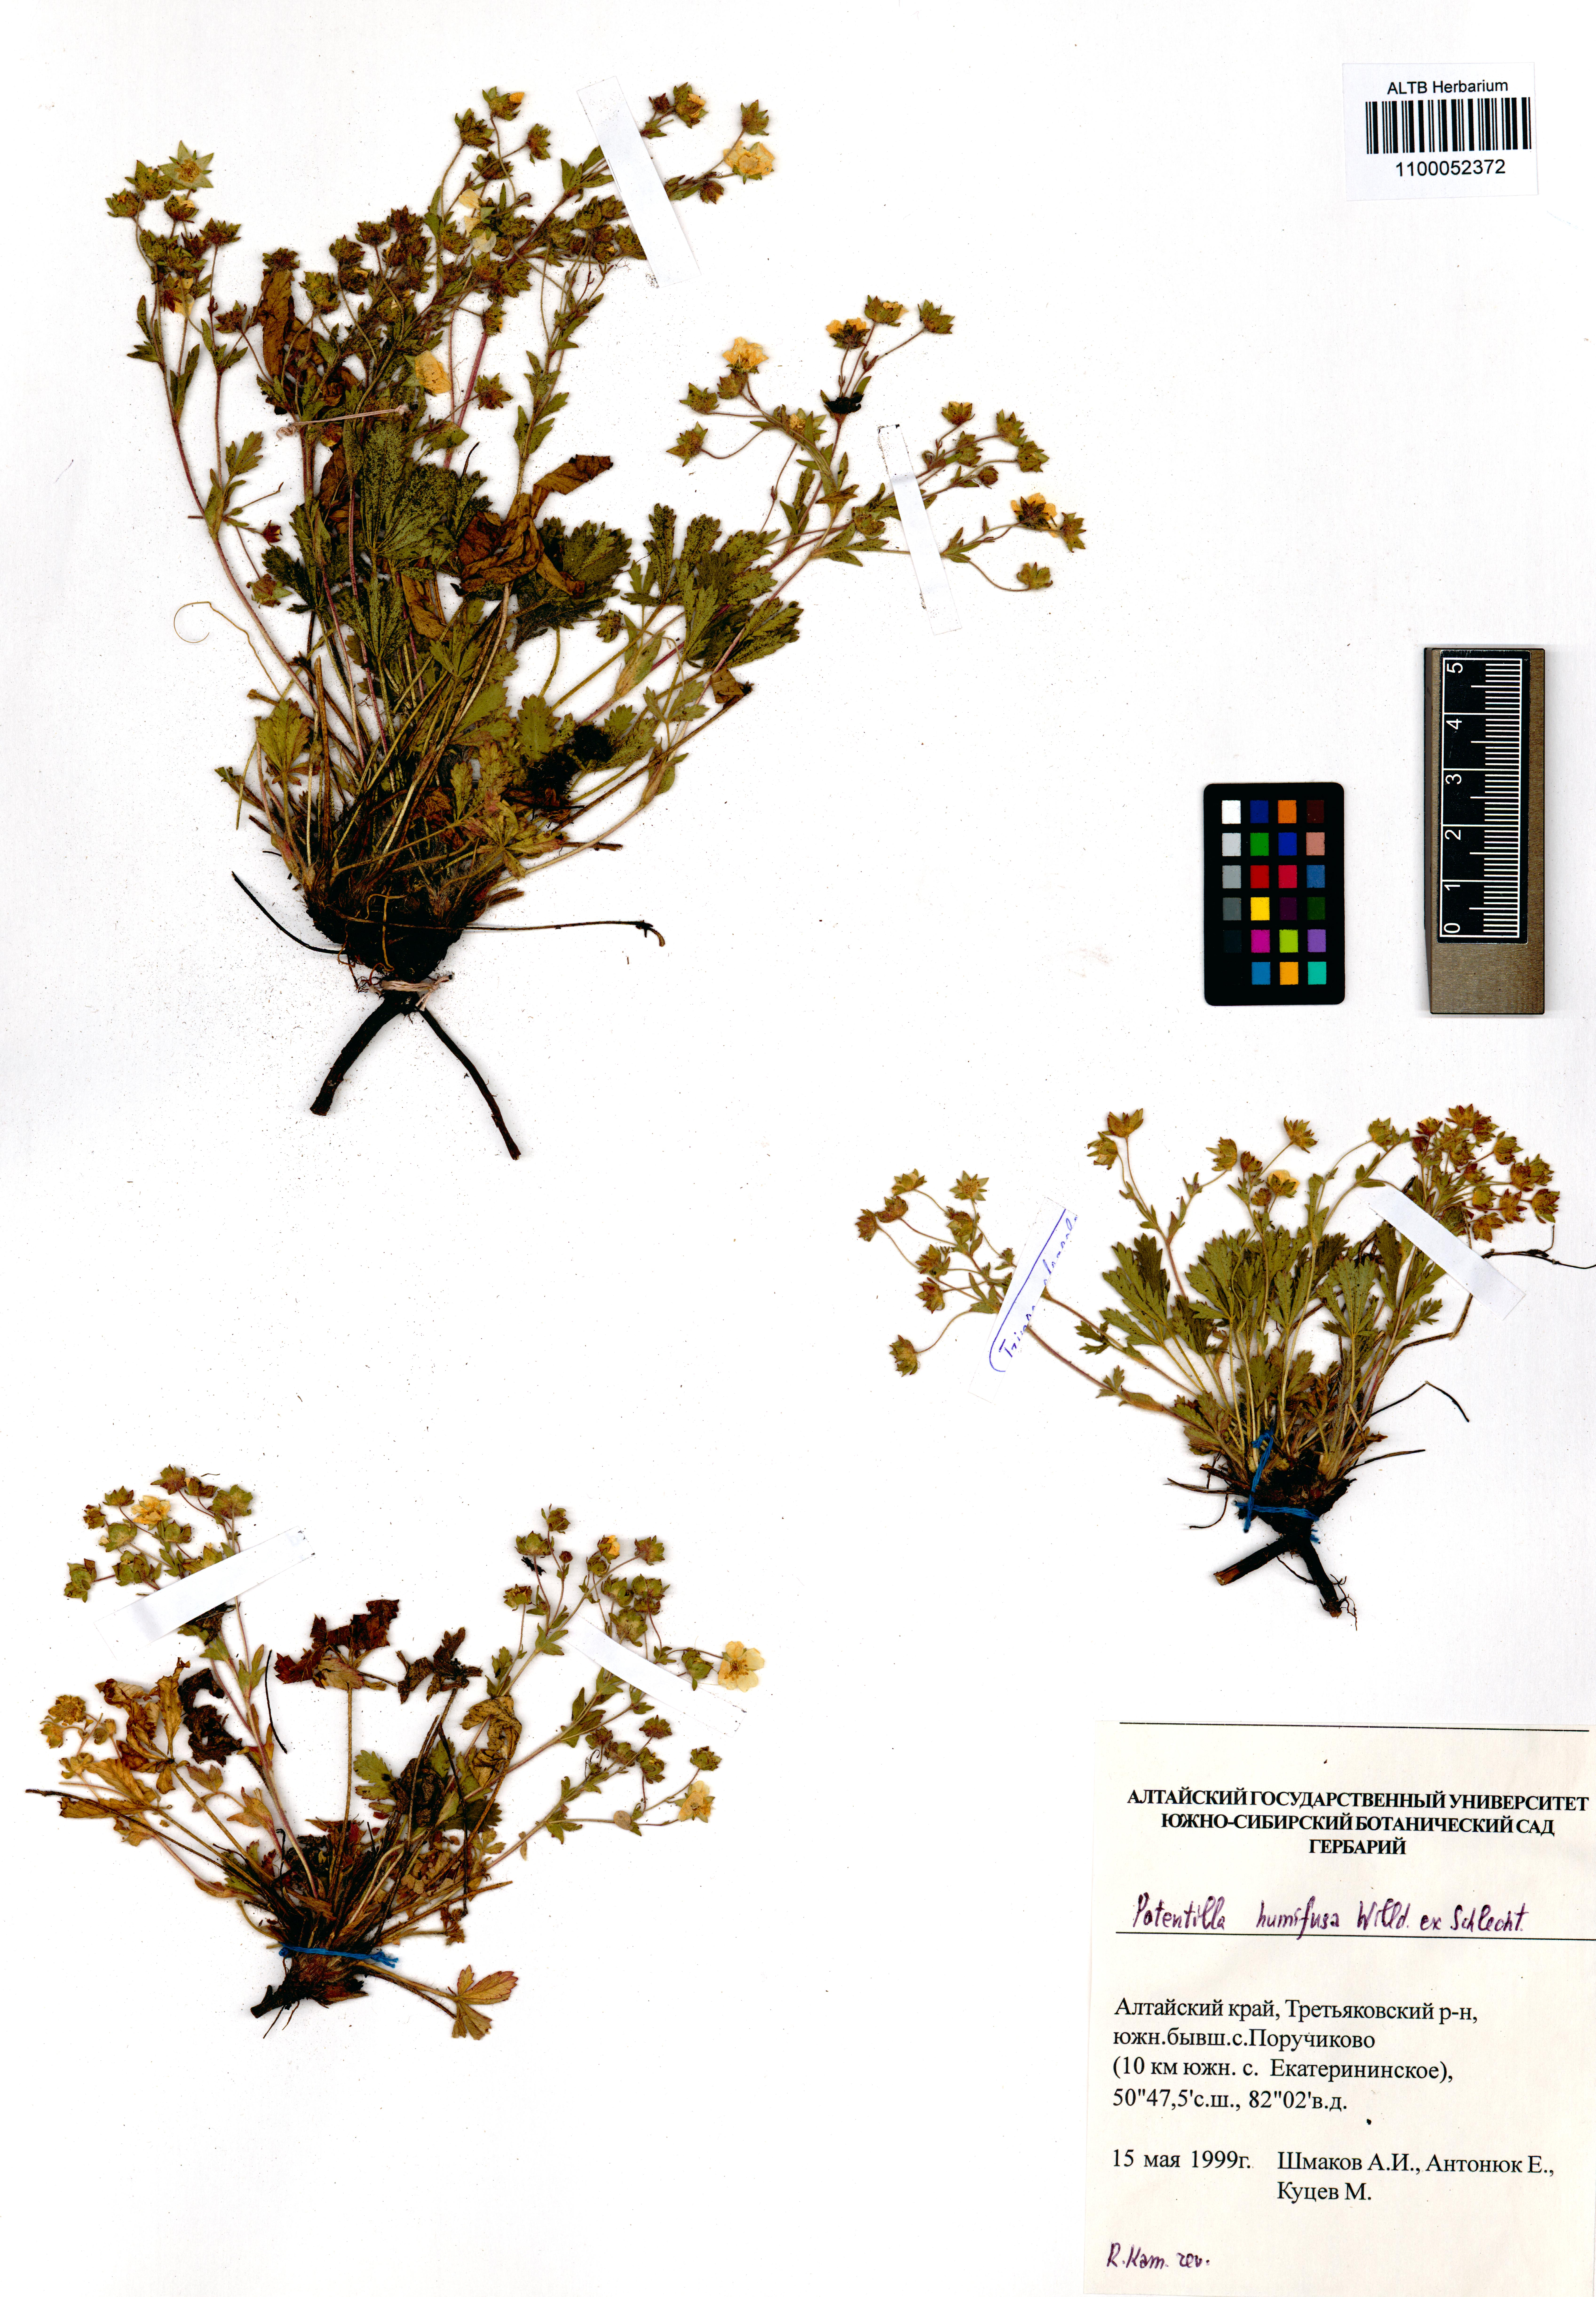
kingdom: Plantae
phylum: Tracheophyta
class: Magnoliopsida
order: Rosales
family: Rosaceae
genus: Potentilla
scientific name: Potentilla humifusa
